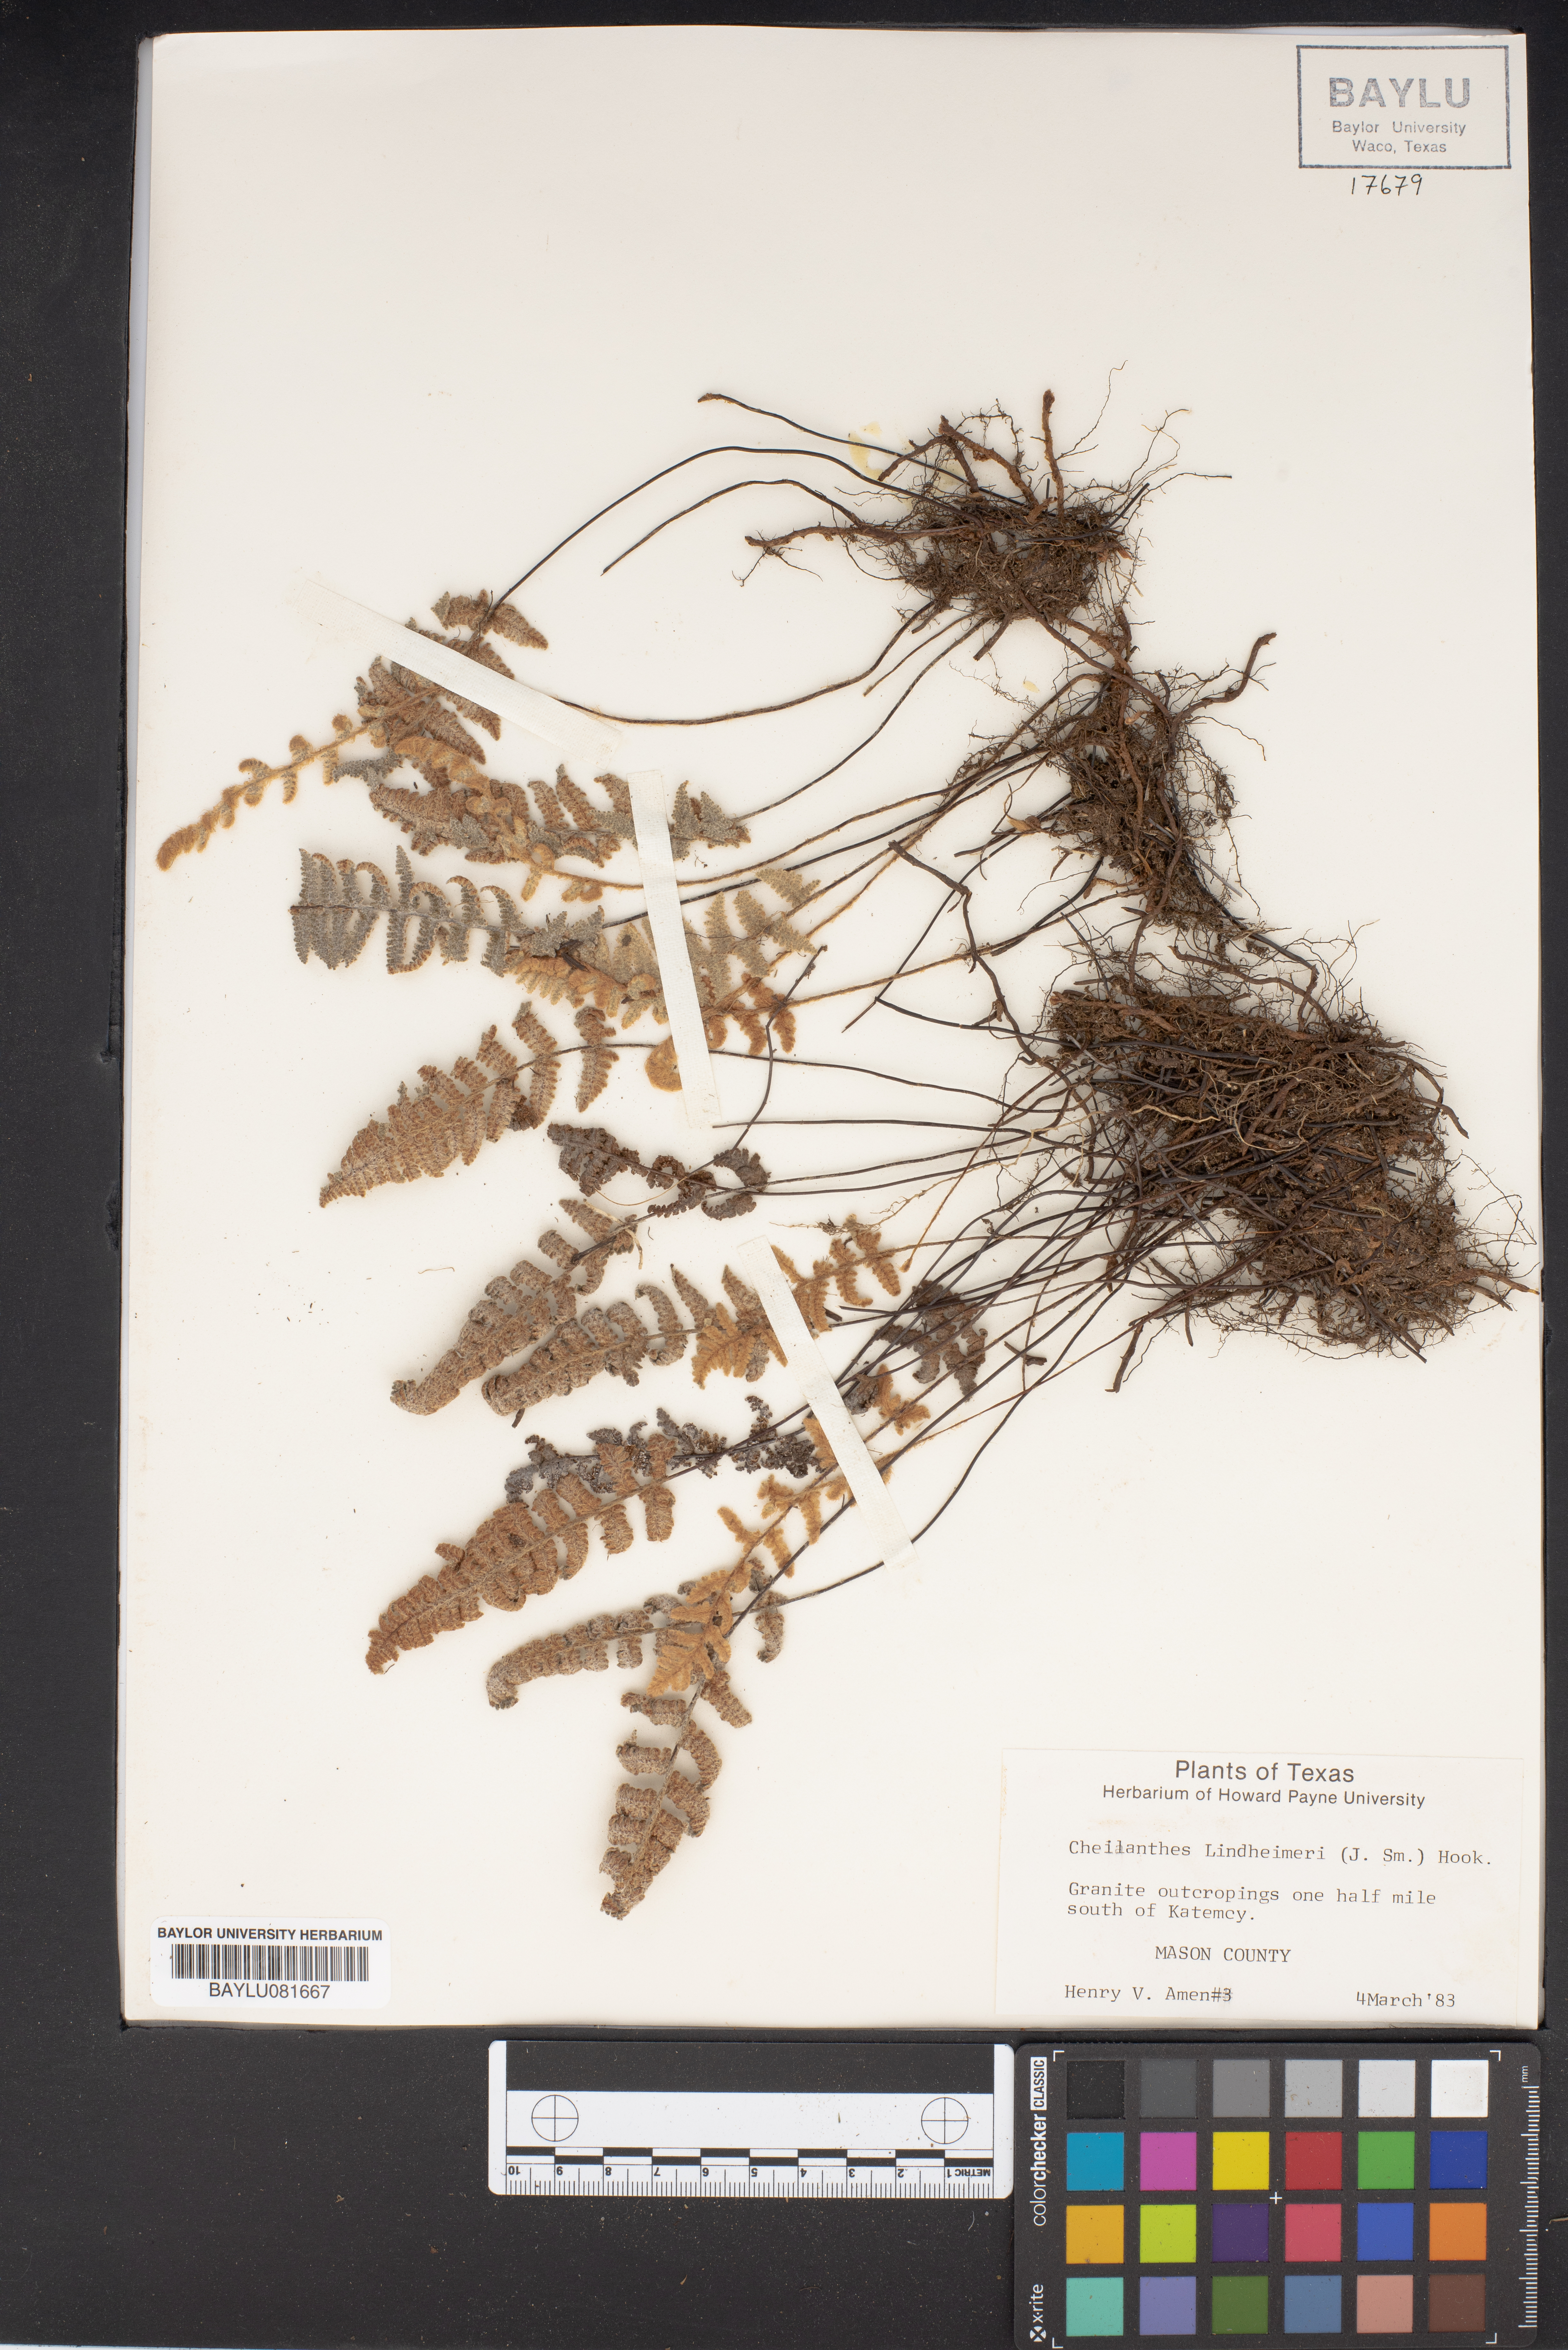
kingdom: Plantae
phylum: Tracheophyta
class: Polypodiopsida
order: Polypodiales
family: Pteridaceae
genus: Myriopteris
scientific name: Myriopteris lindheimeri
